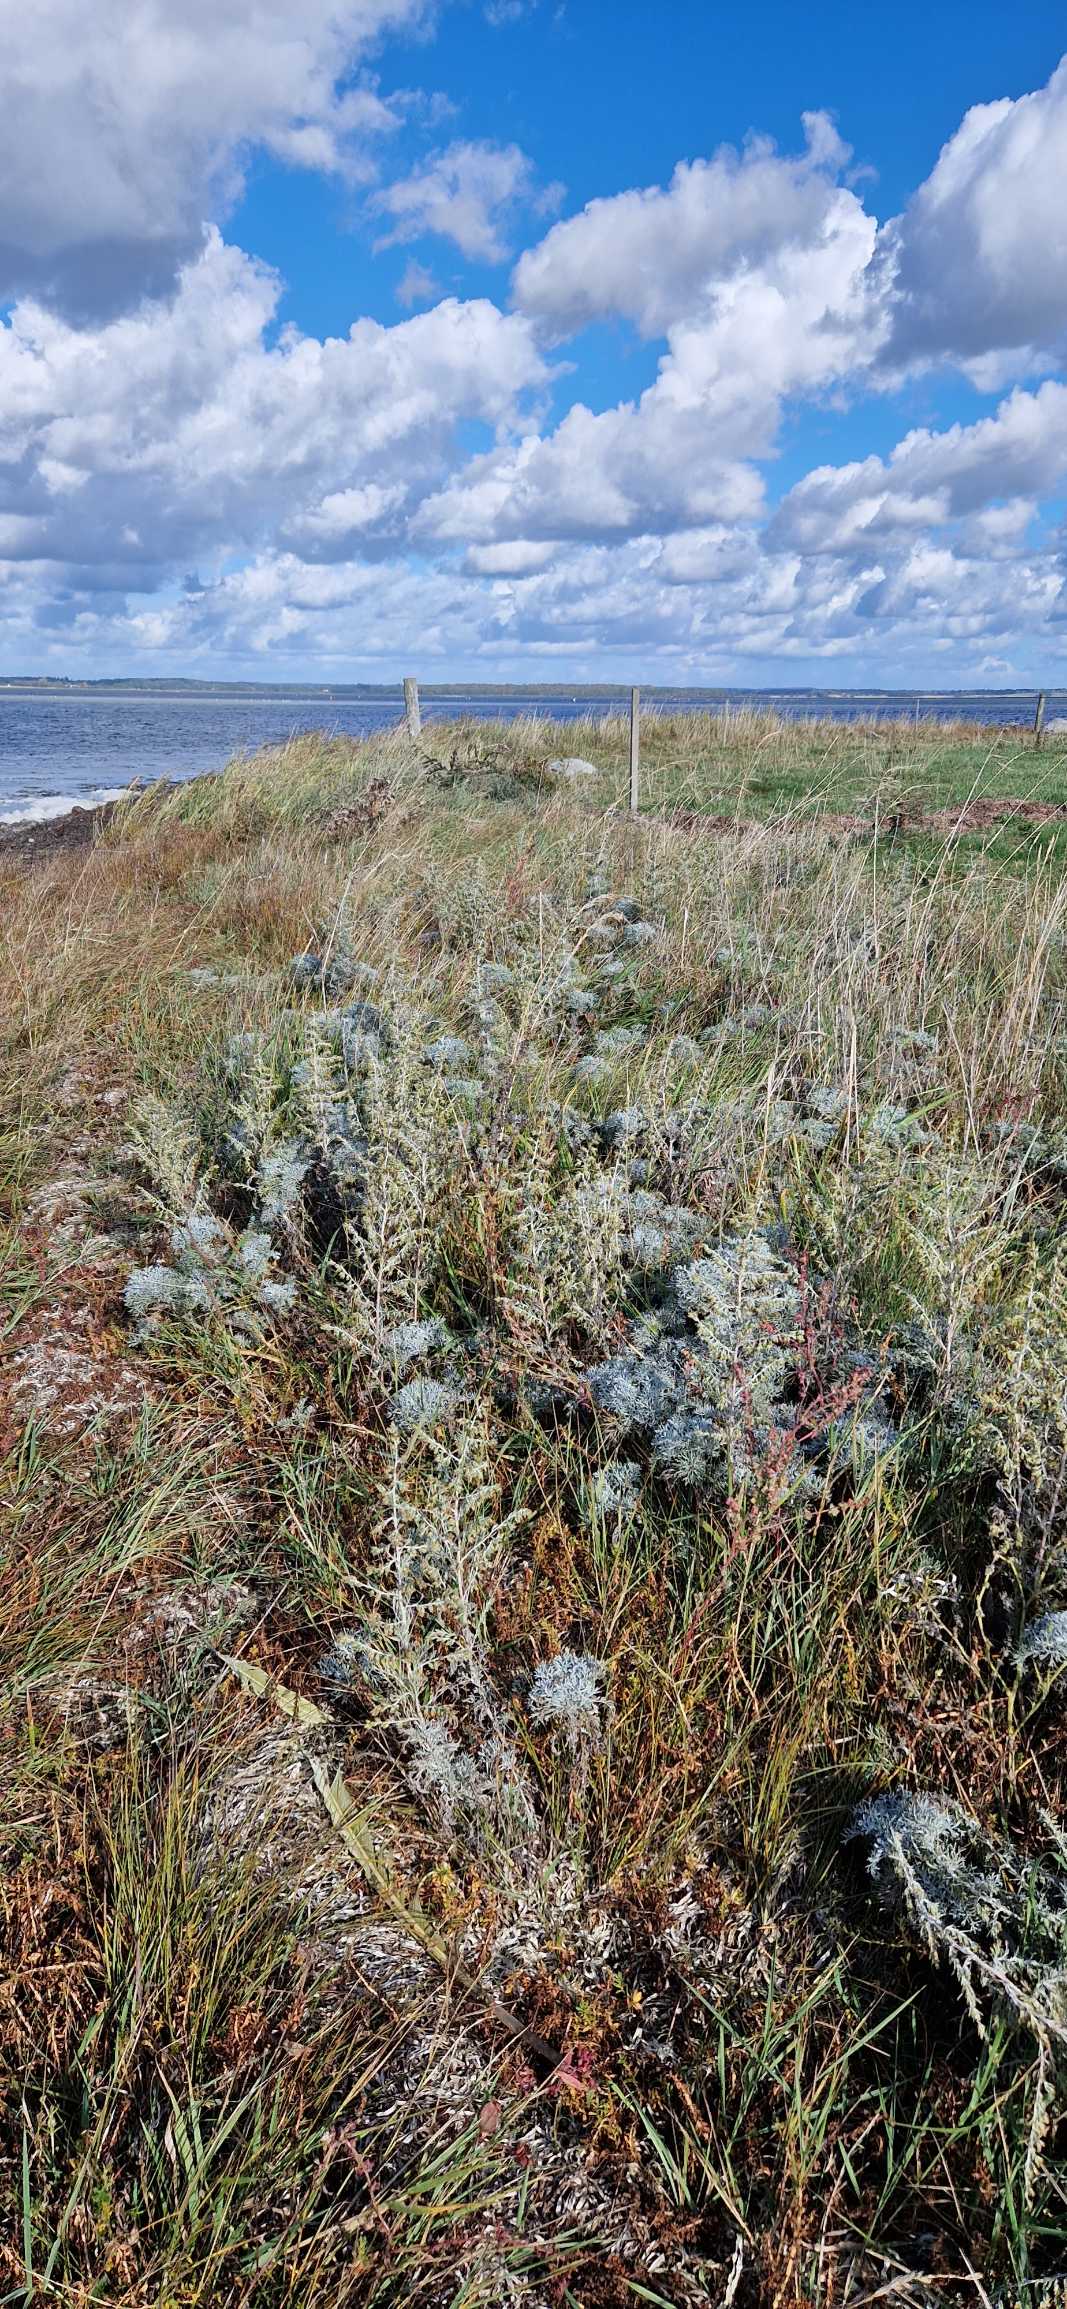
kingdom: Plantae
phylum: Tracheophyta
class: Magnoliopsida
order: Asterales
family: Asteraceae
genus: Artemisia
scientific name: Artemisia maritima
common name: Strandmalurt
